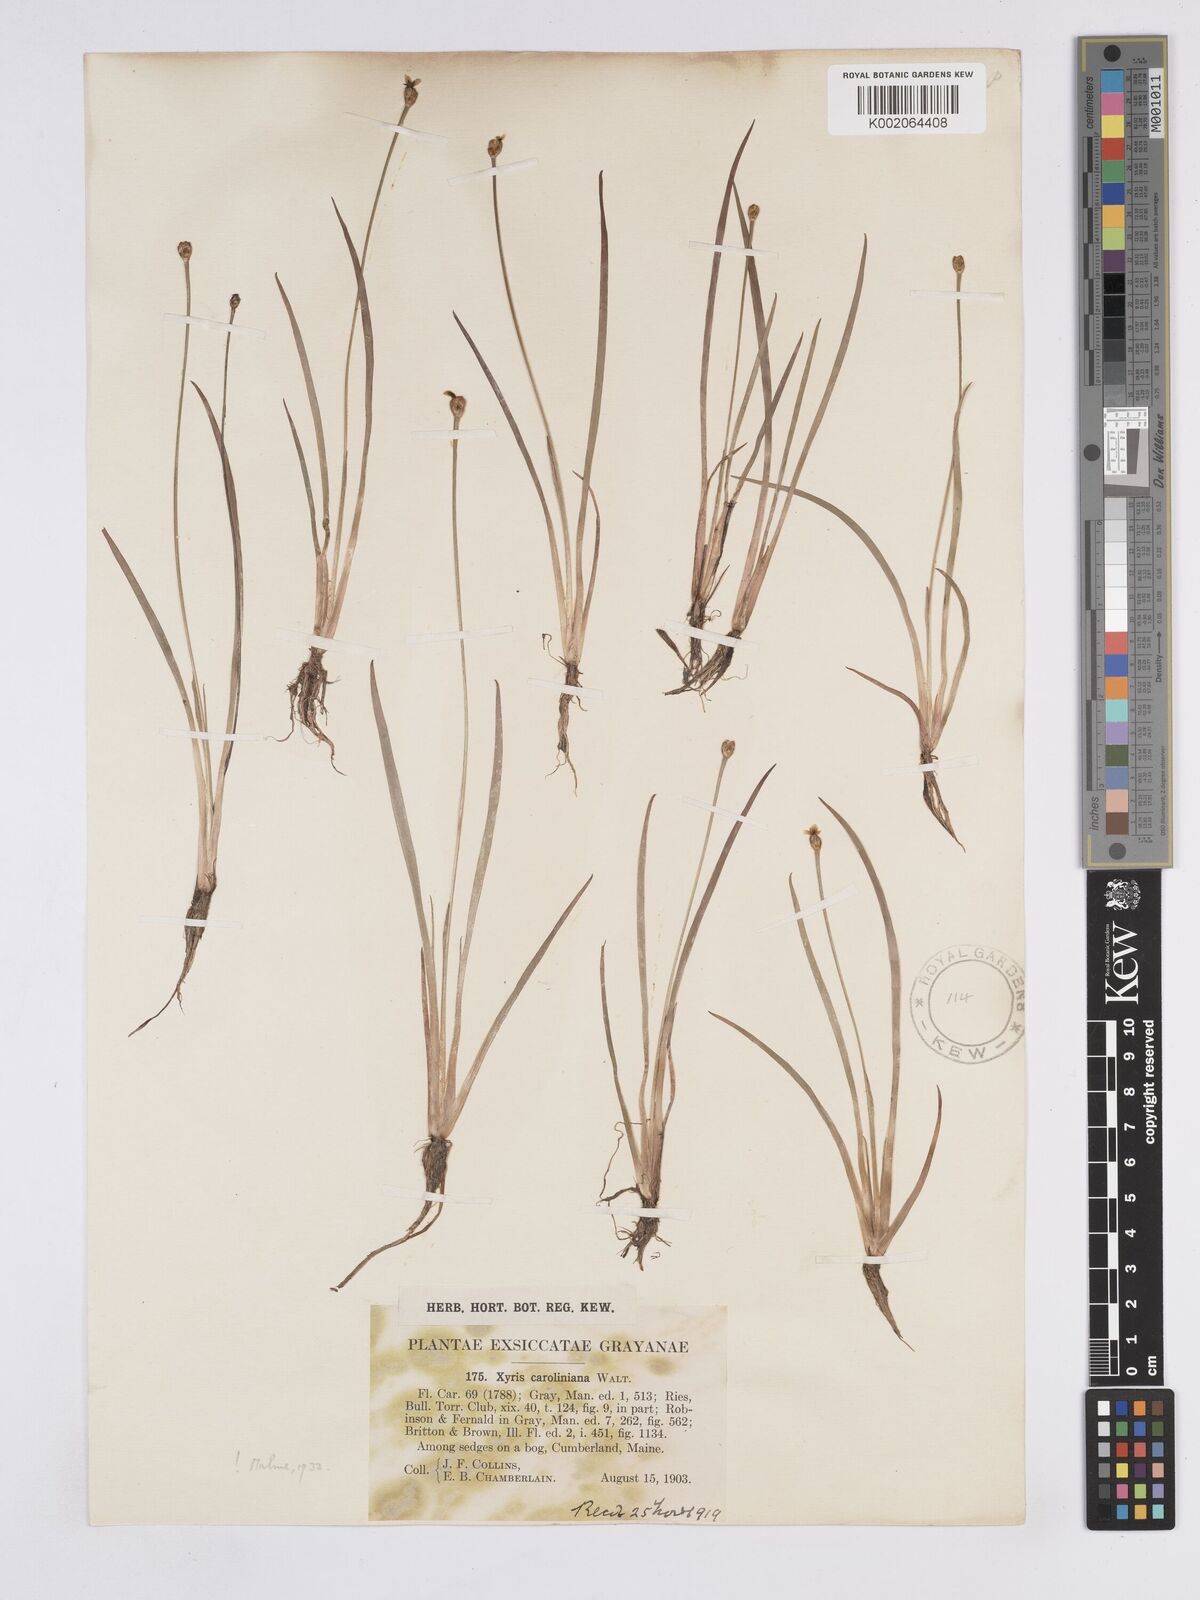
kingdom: Plantae
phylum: Tracheophyta
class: Liliopsida
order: Poales
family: Xyridaceae
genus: Xyris
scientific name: Xyris caroliniana
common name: Carolina yellow-eyed-grass
